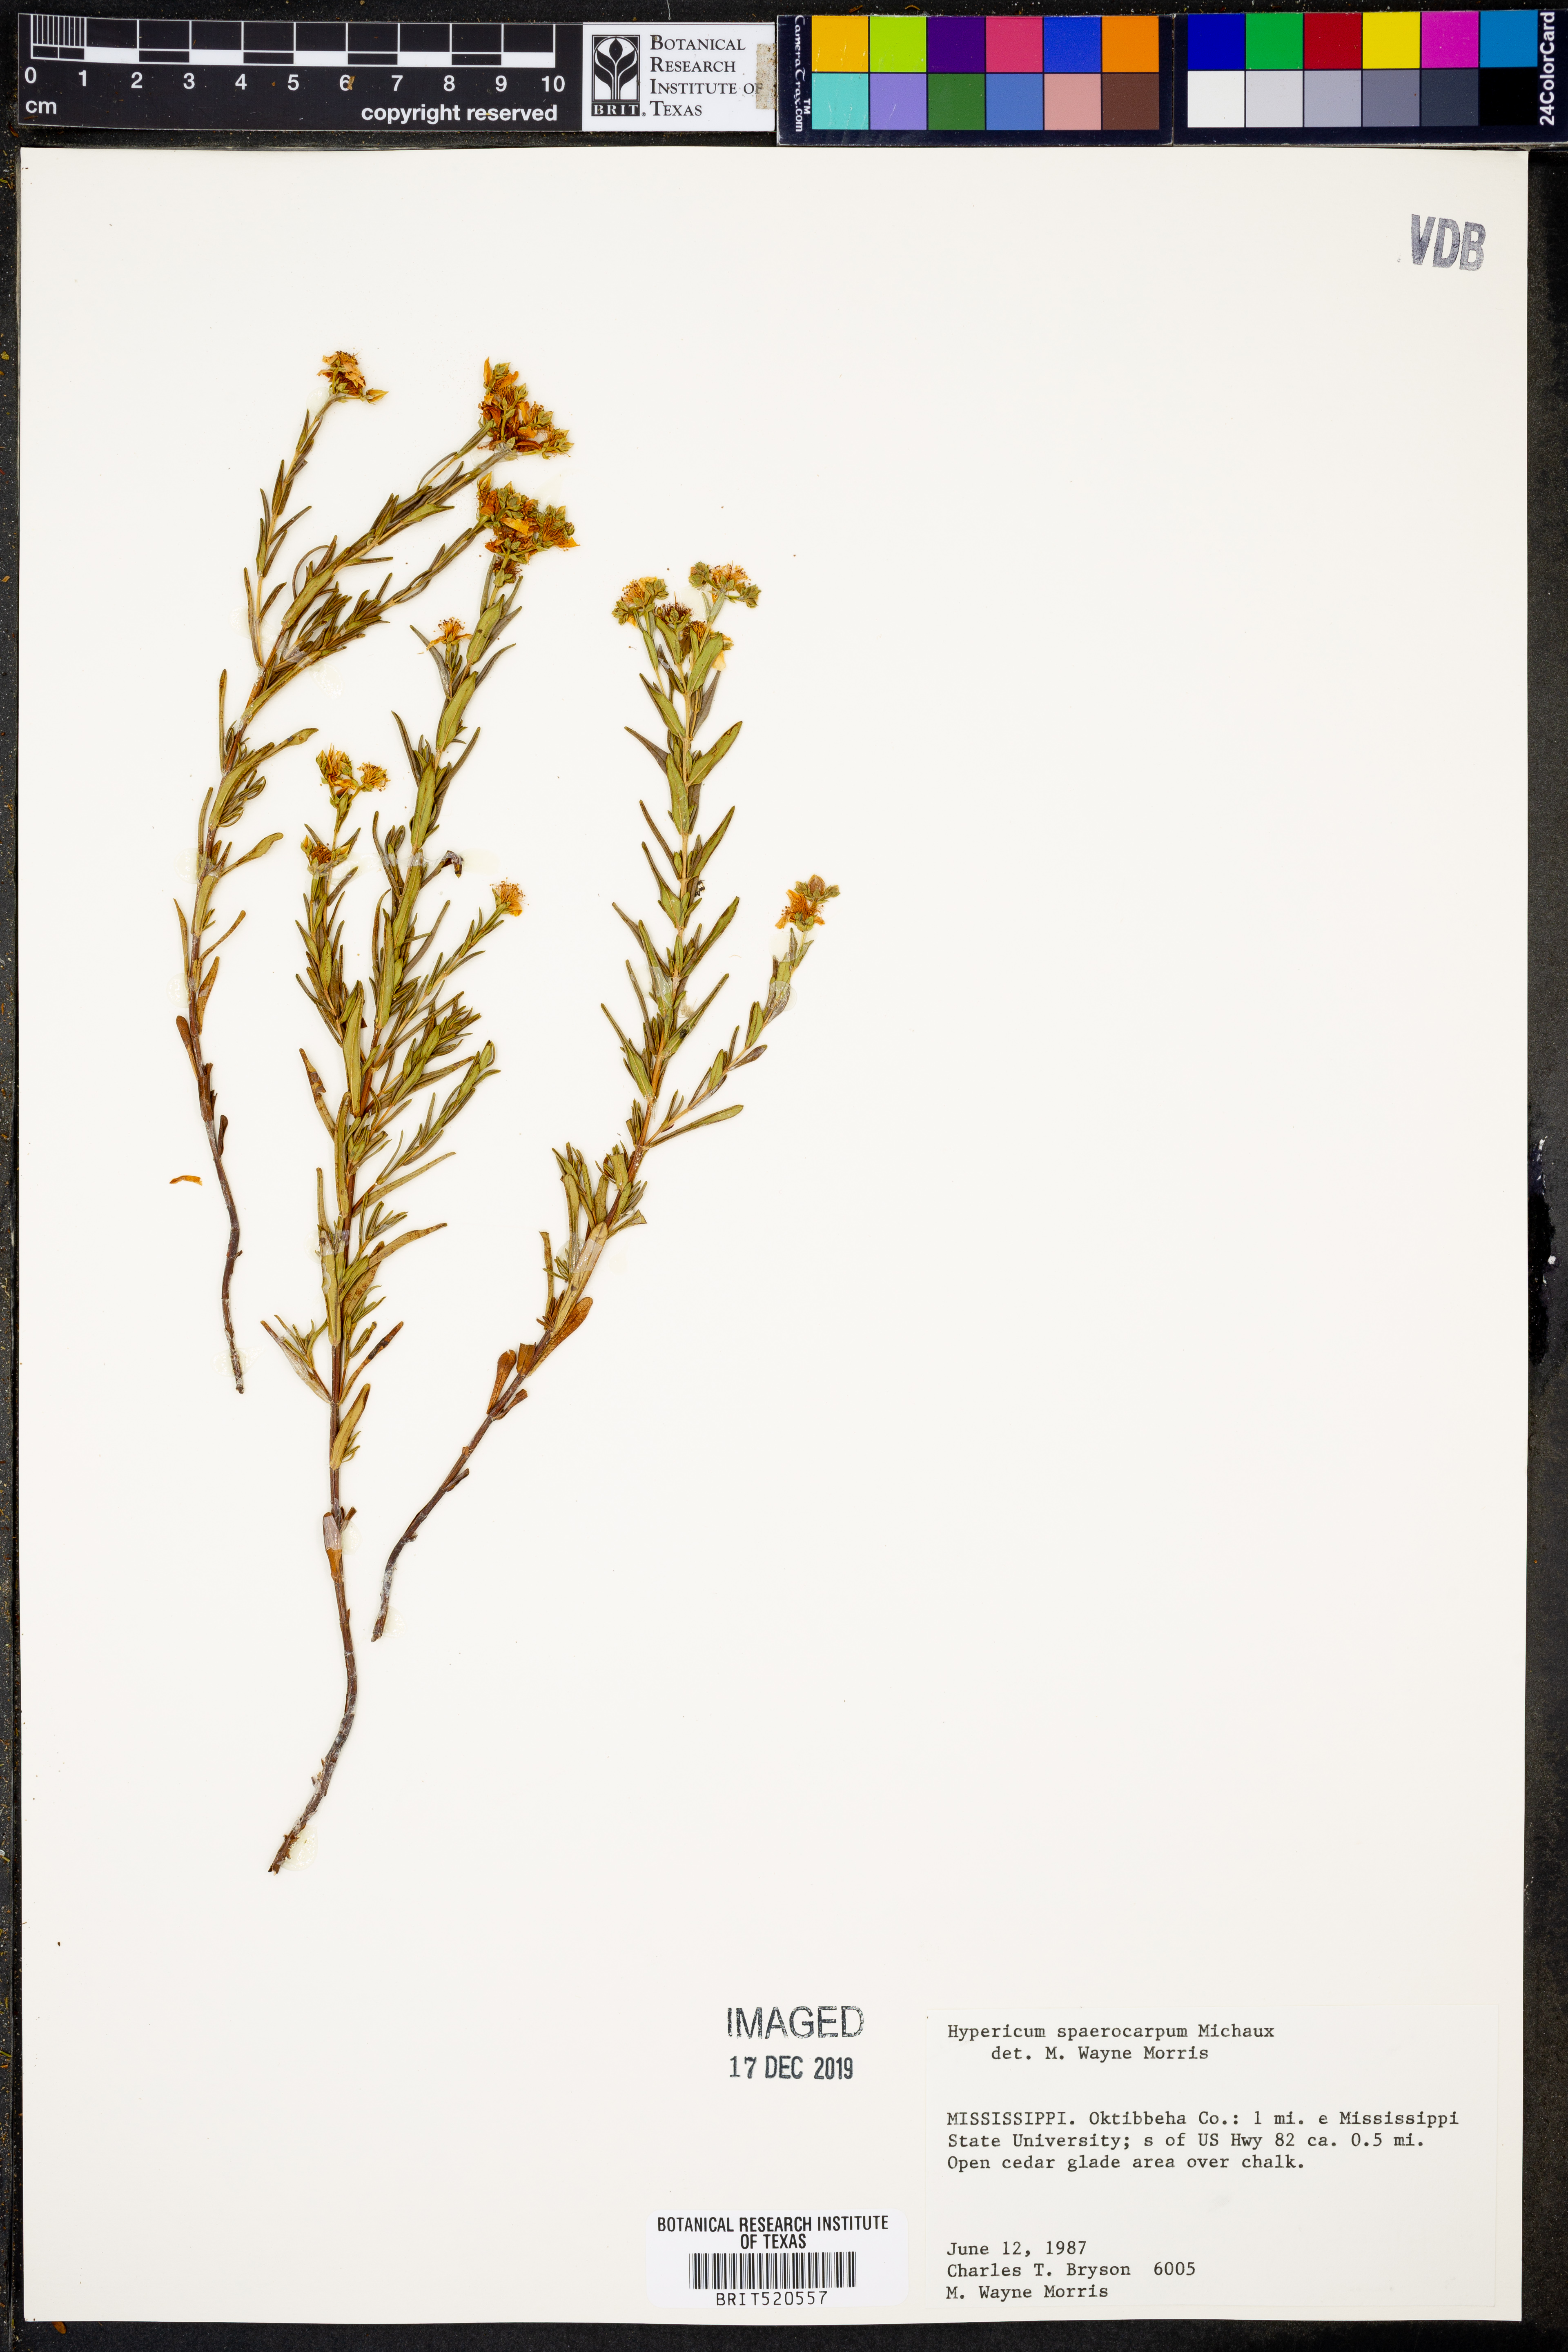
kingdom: Plantae
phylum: Tracheophyta
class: Magnoliopsida
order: Malpighiales
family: Hypericaceae
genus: Hypericum
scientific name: Hypericum sphaerocarpum
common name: Round-fruited st. john's-wort
